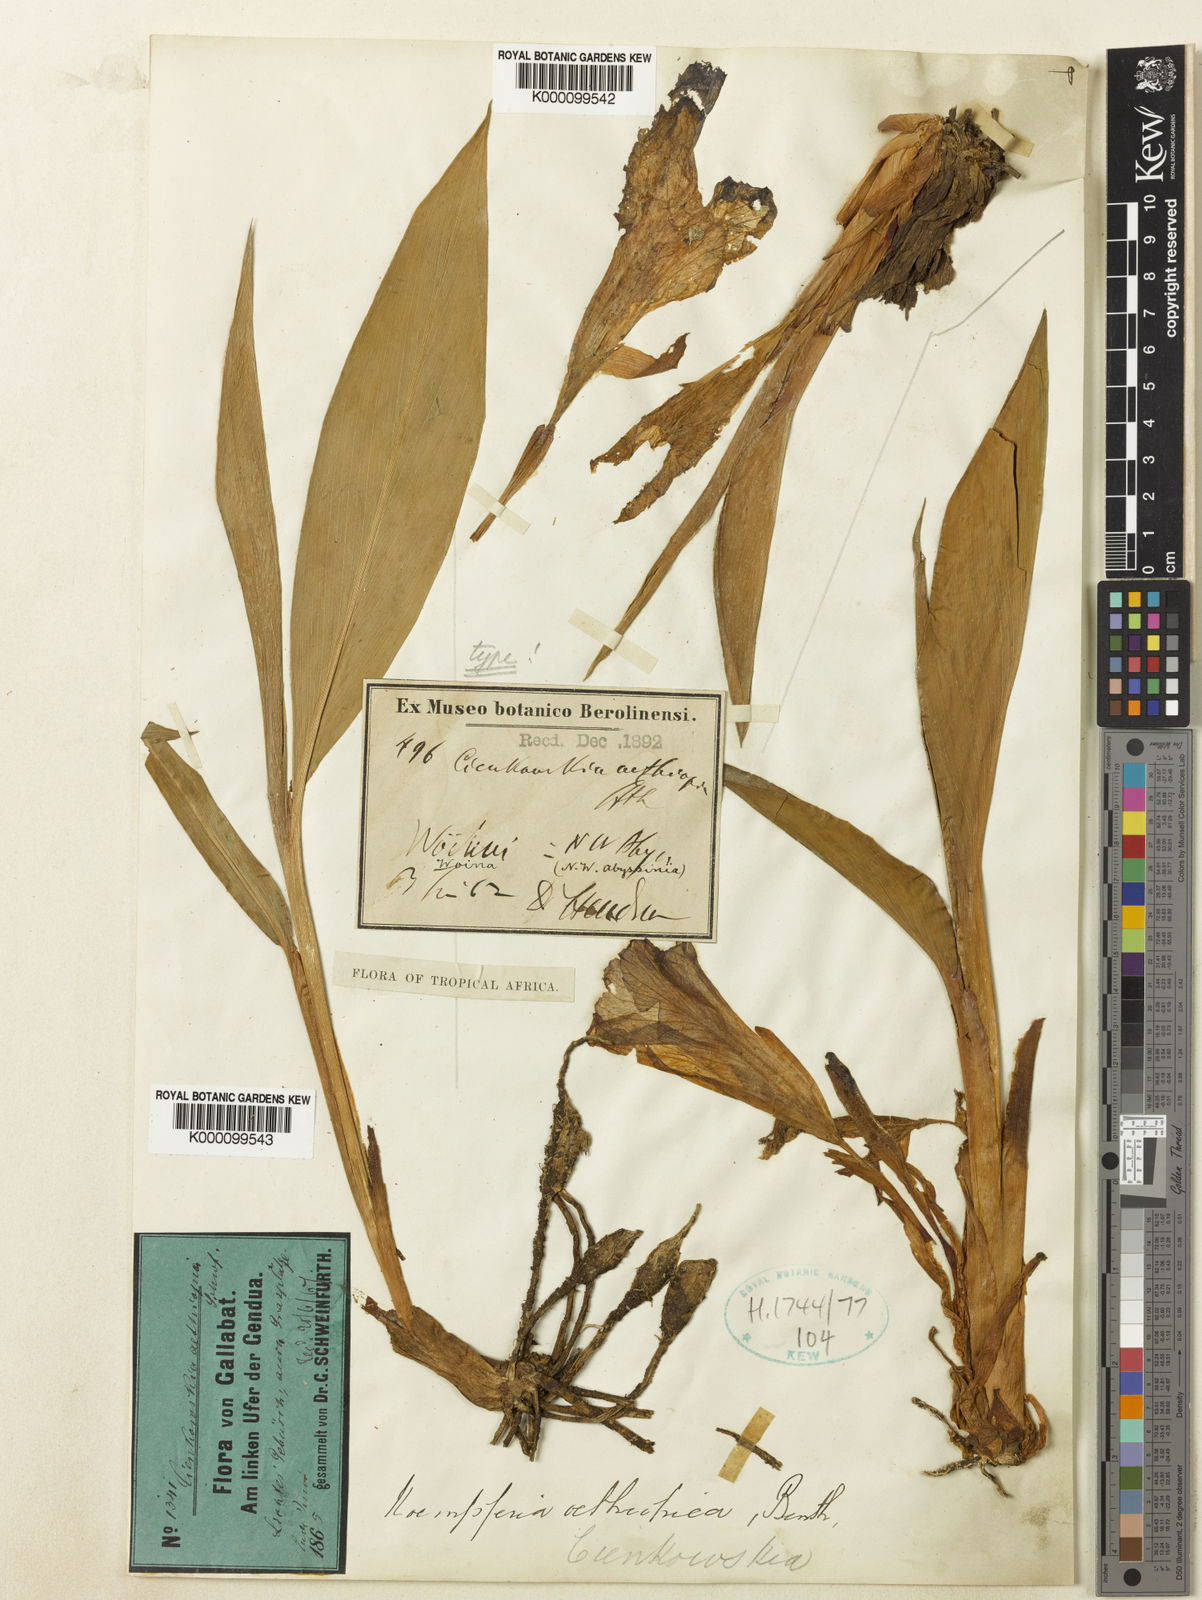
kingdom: Plantae
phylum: Tracheophyta
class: Liliopsida
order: Zingiberales
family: Zingiberaceae
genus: Siphonochilus
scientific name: Siphonochilus aethiopicus
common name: African-ginger
